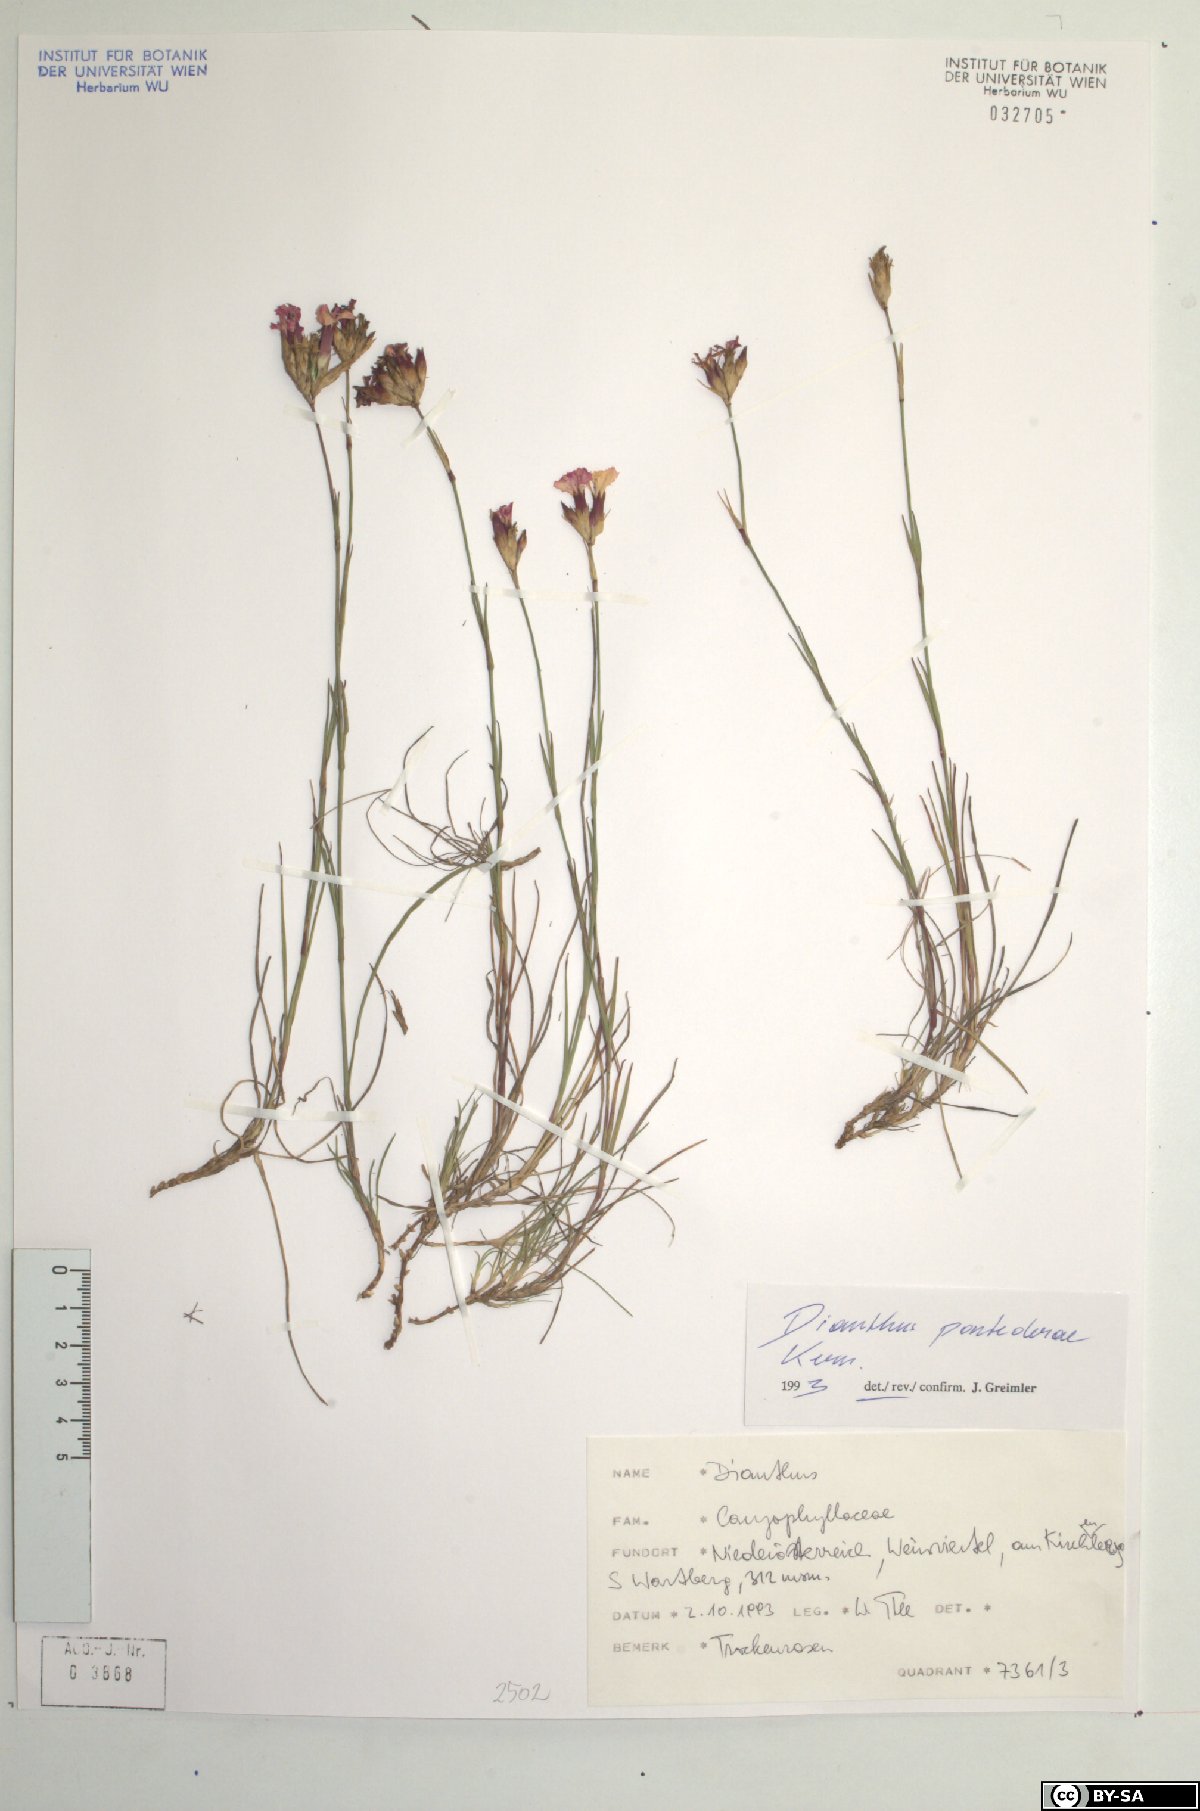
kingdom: Plantae
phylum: Tracheophyta
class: Magnoliopsida
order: Caryophyllales
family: Caryophyllaceae
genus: Dianthus
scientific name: Dianthus pontederae
